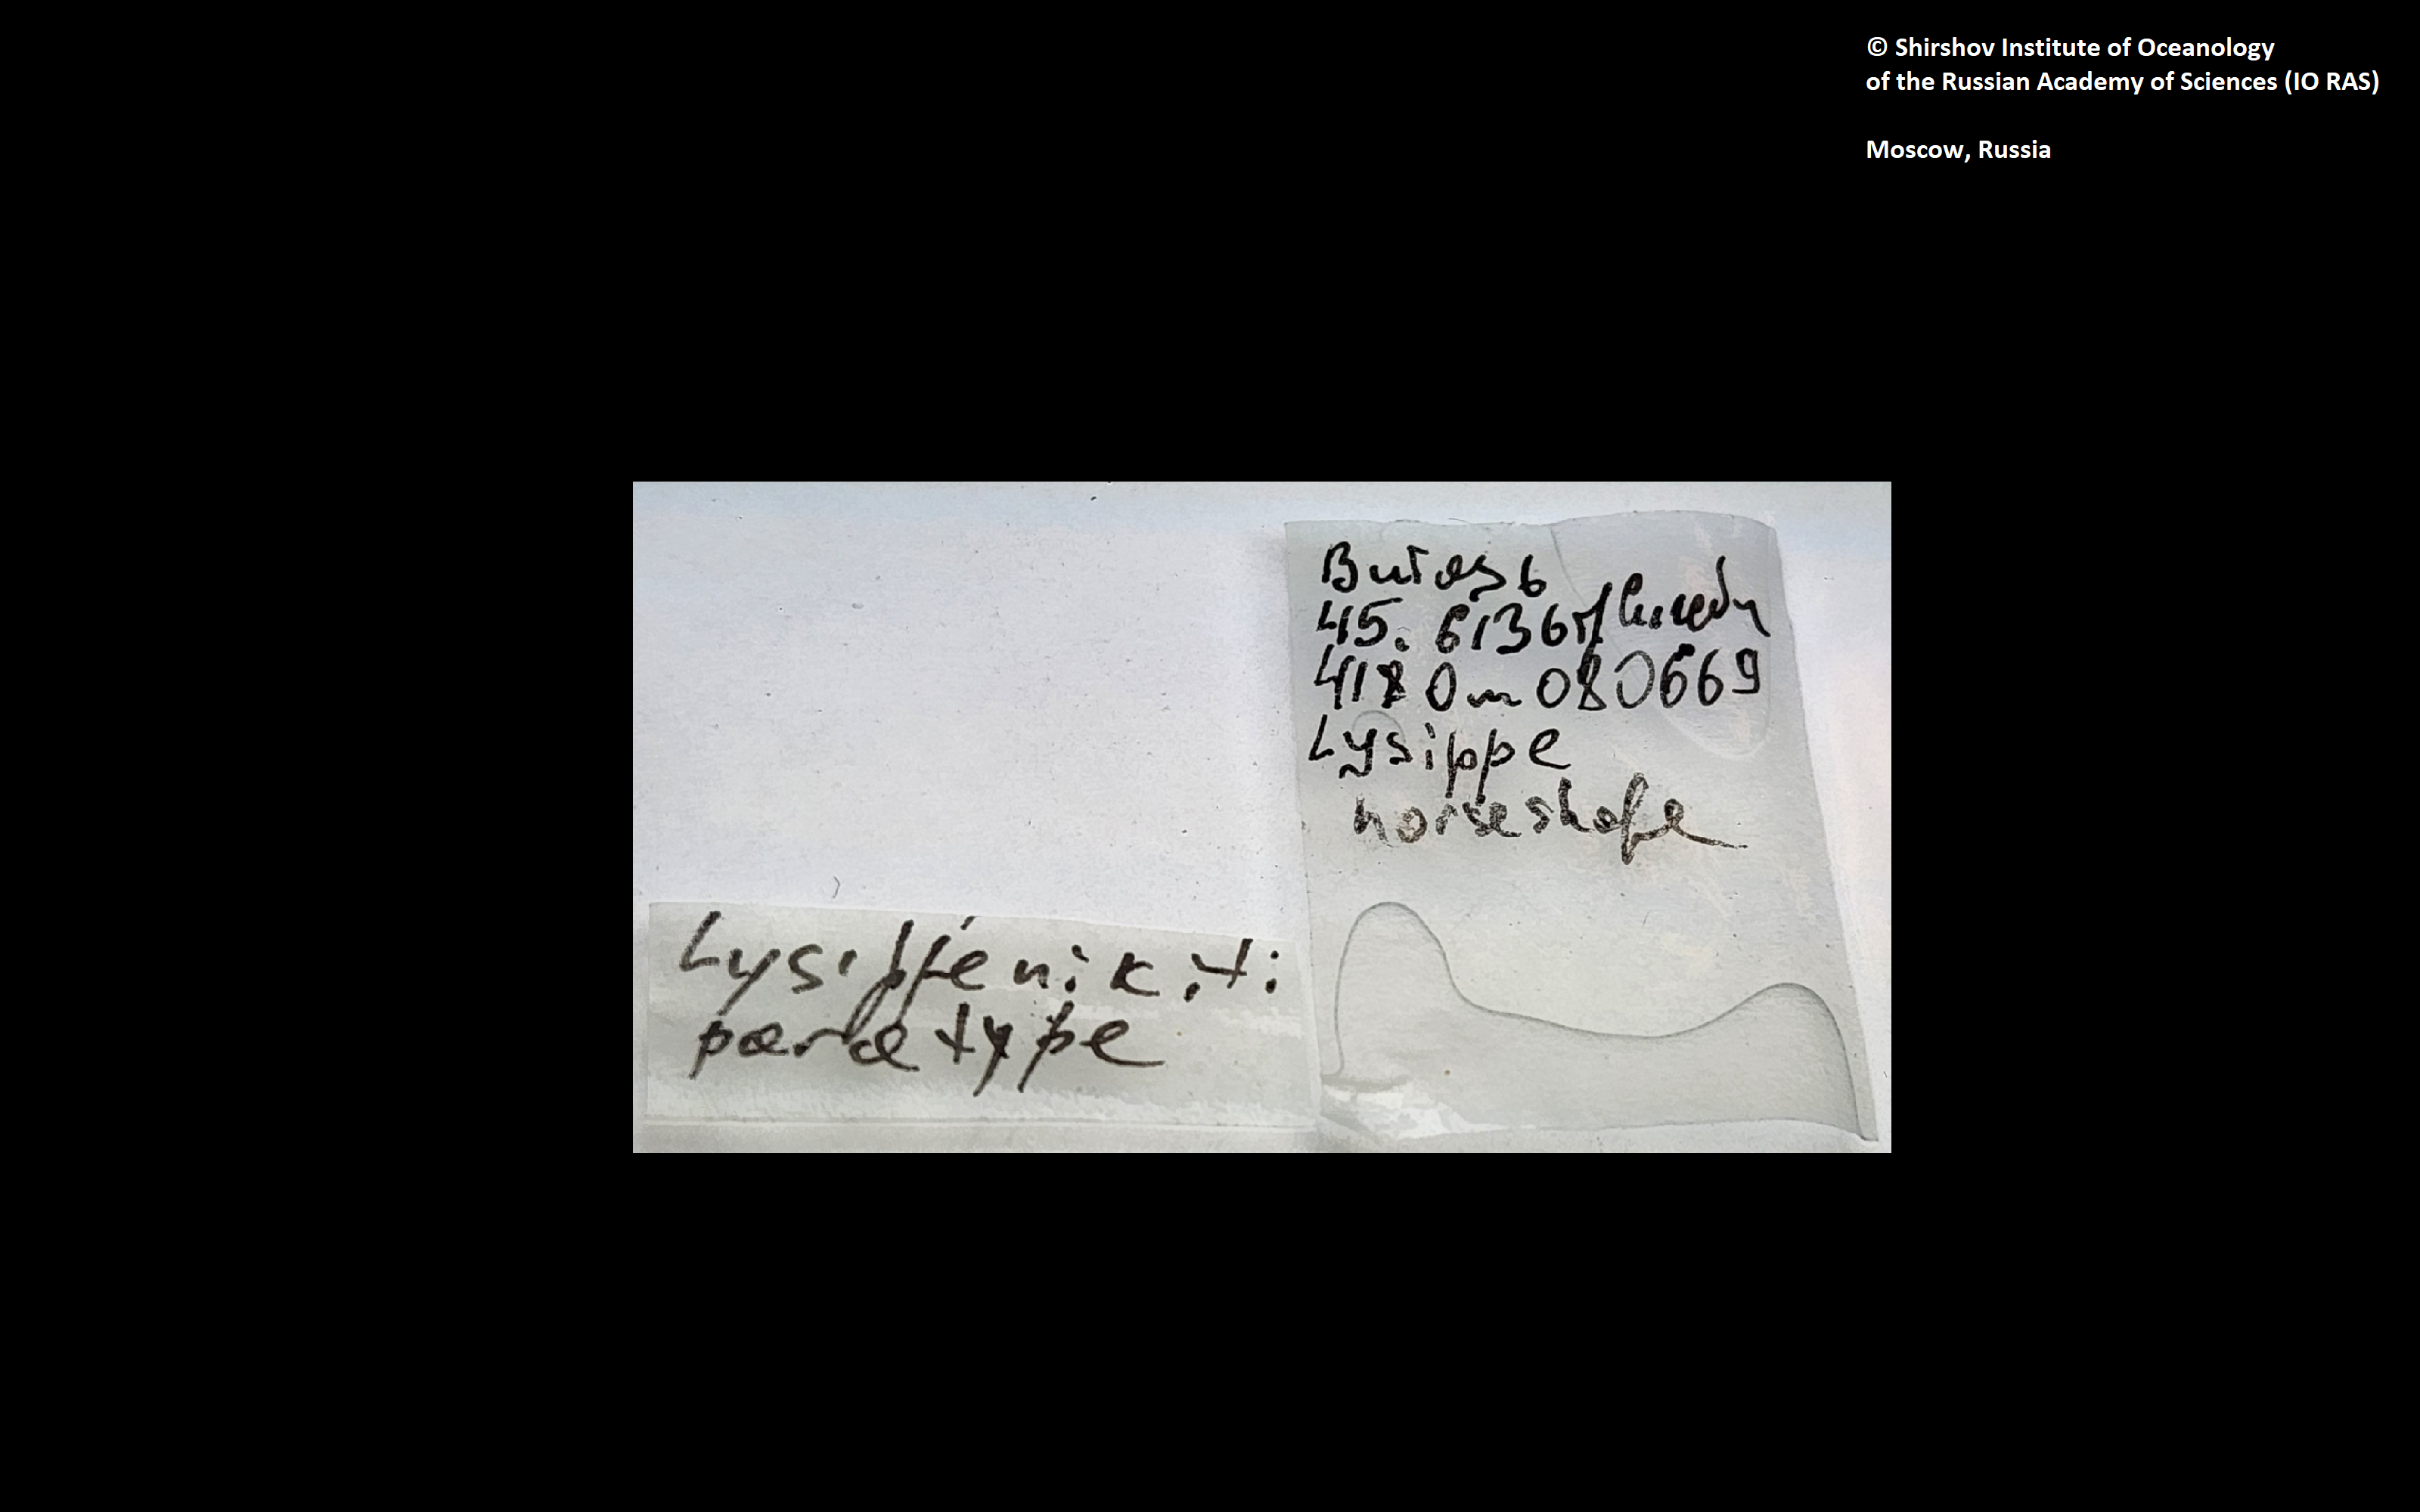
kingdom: Animalia
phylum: Annelida
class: Polychaeta
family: Ampharetidae
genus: Lysippe
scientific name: Lysippe nikiti
